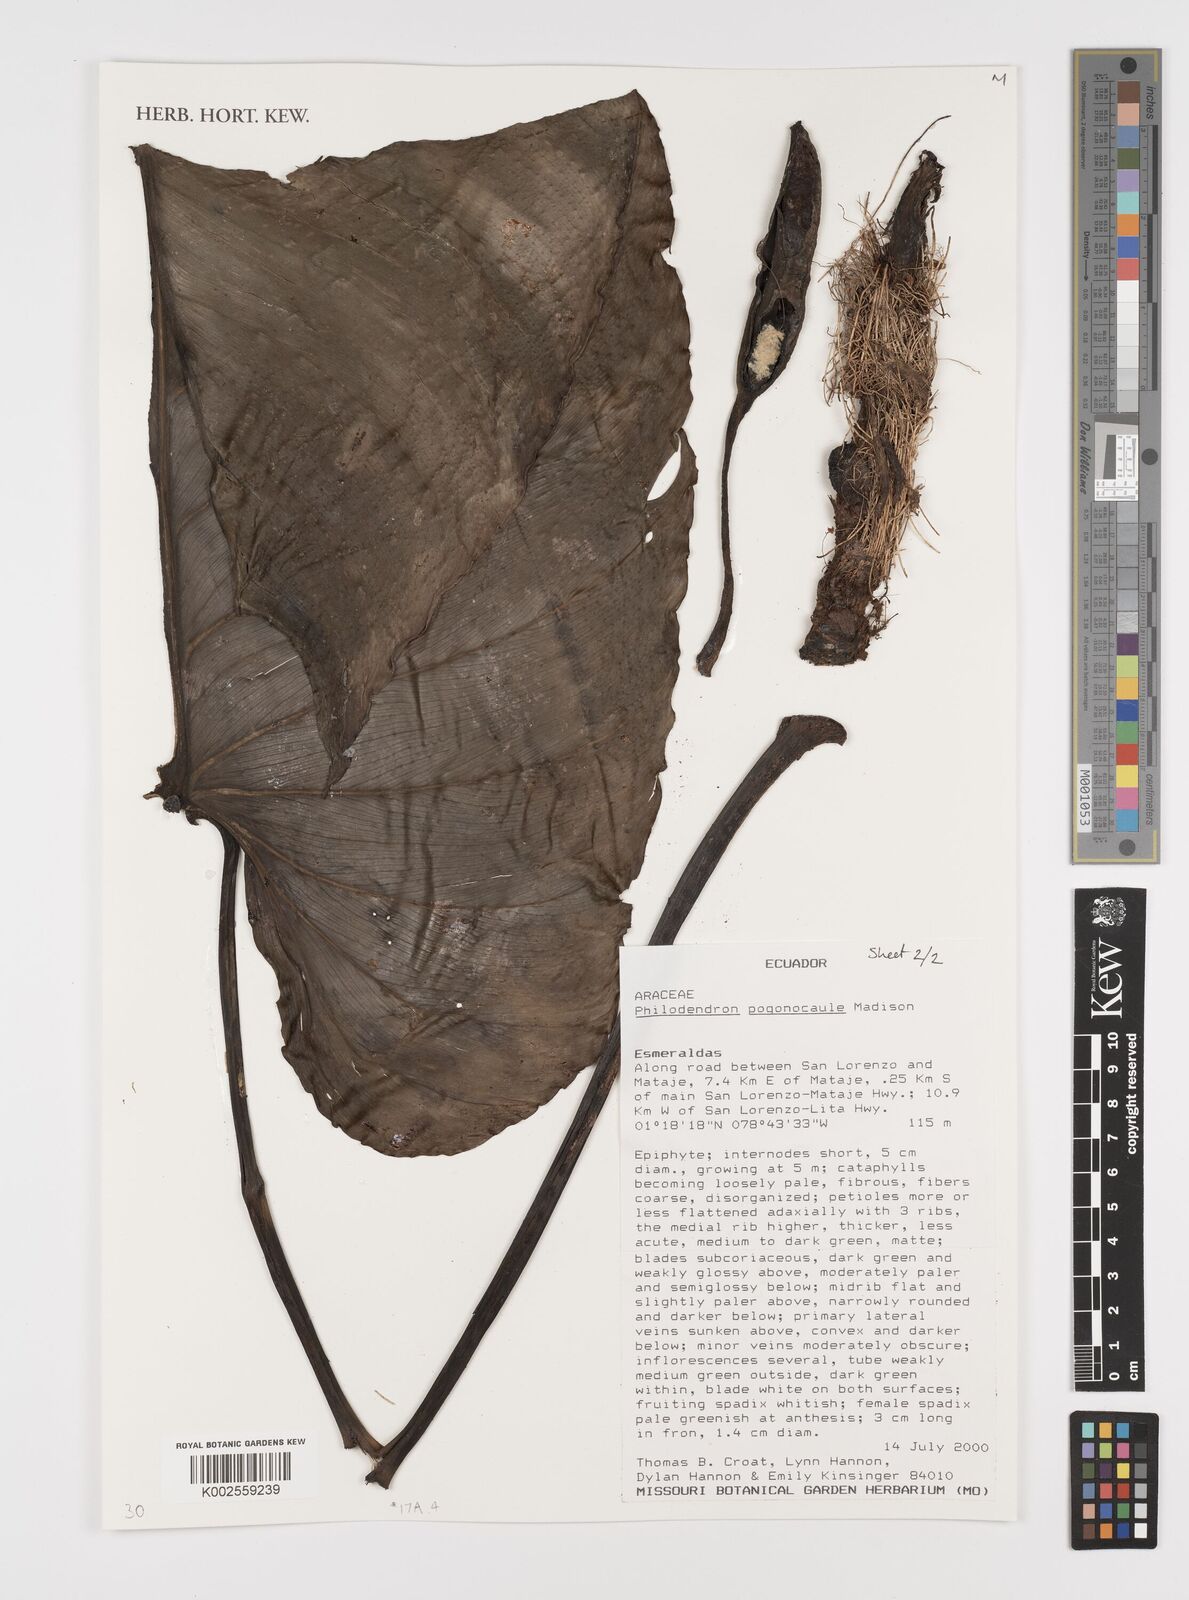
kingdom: Plantae
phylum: Tracheophyta
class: Liliopsida
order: Alismatales
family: Araceae
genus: Philodendron
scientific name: Philodendron pogonocaule
